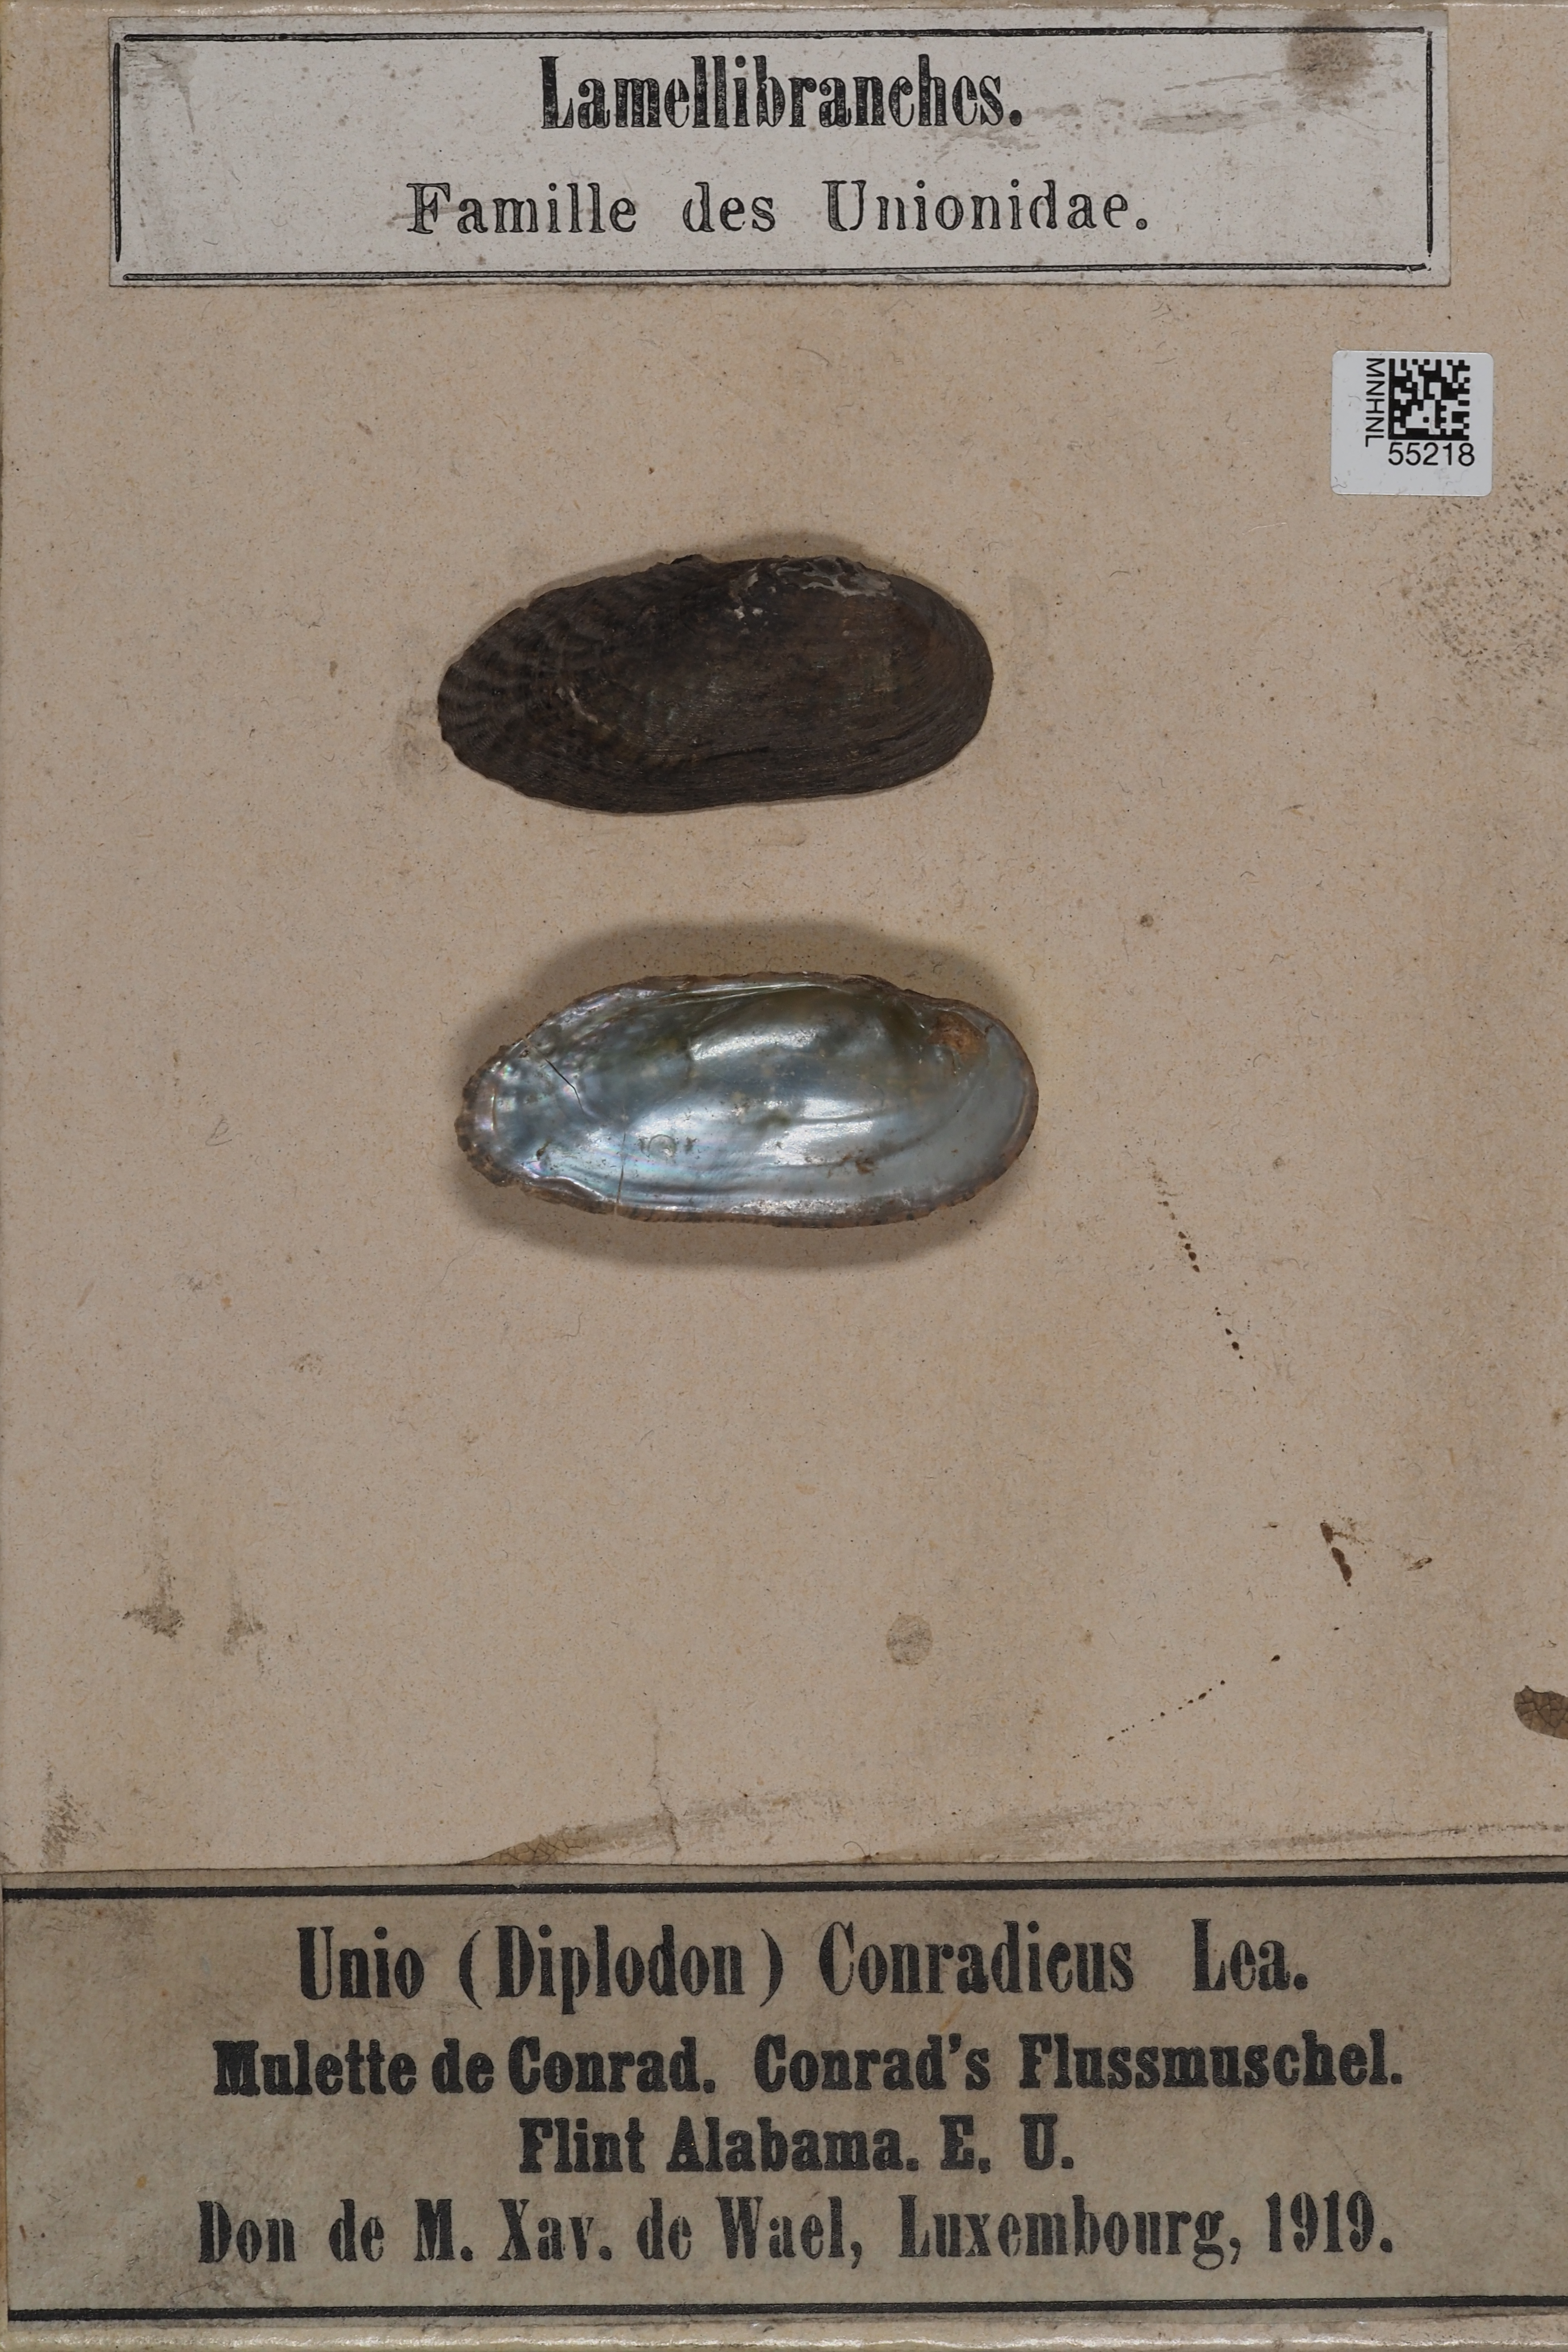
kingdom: Animalia
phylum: Mollusca
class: Bivalvia
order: Unionida
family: Unionidae
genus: Medionidus
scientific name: Medionidus conradicus
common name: Cumberland mocassinshell
